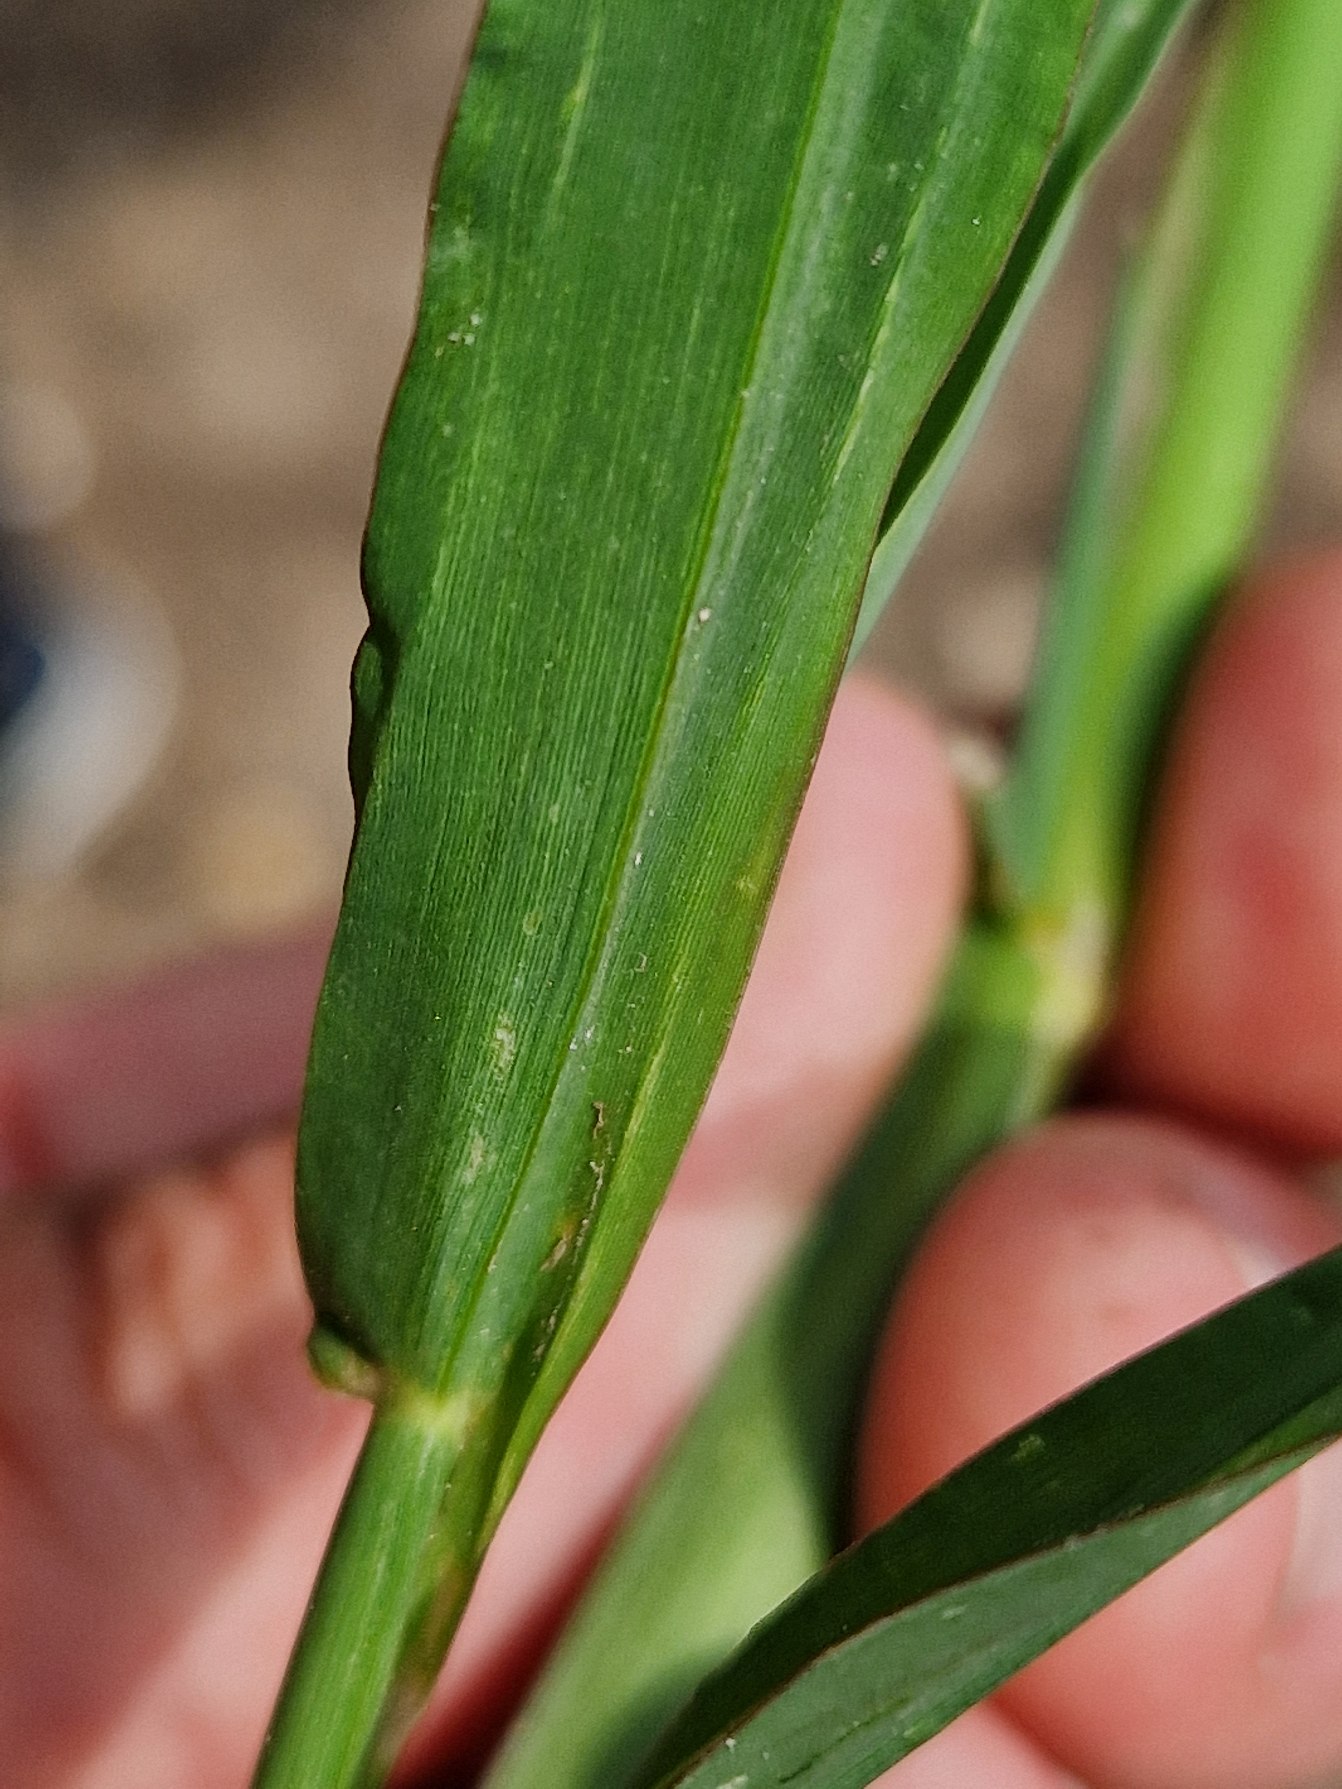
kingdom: Plantae
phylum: Tracheophyta
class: Liliopsida
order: Poales
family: Poaceae
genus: Echinochloa
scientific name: Echinochloa crus-galli
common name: Almindelig hanespore
